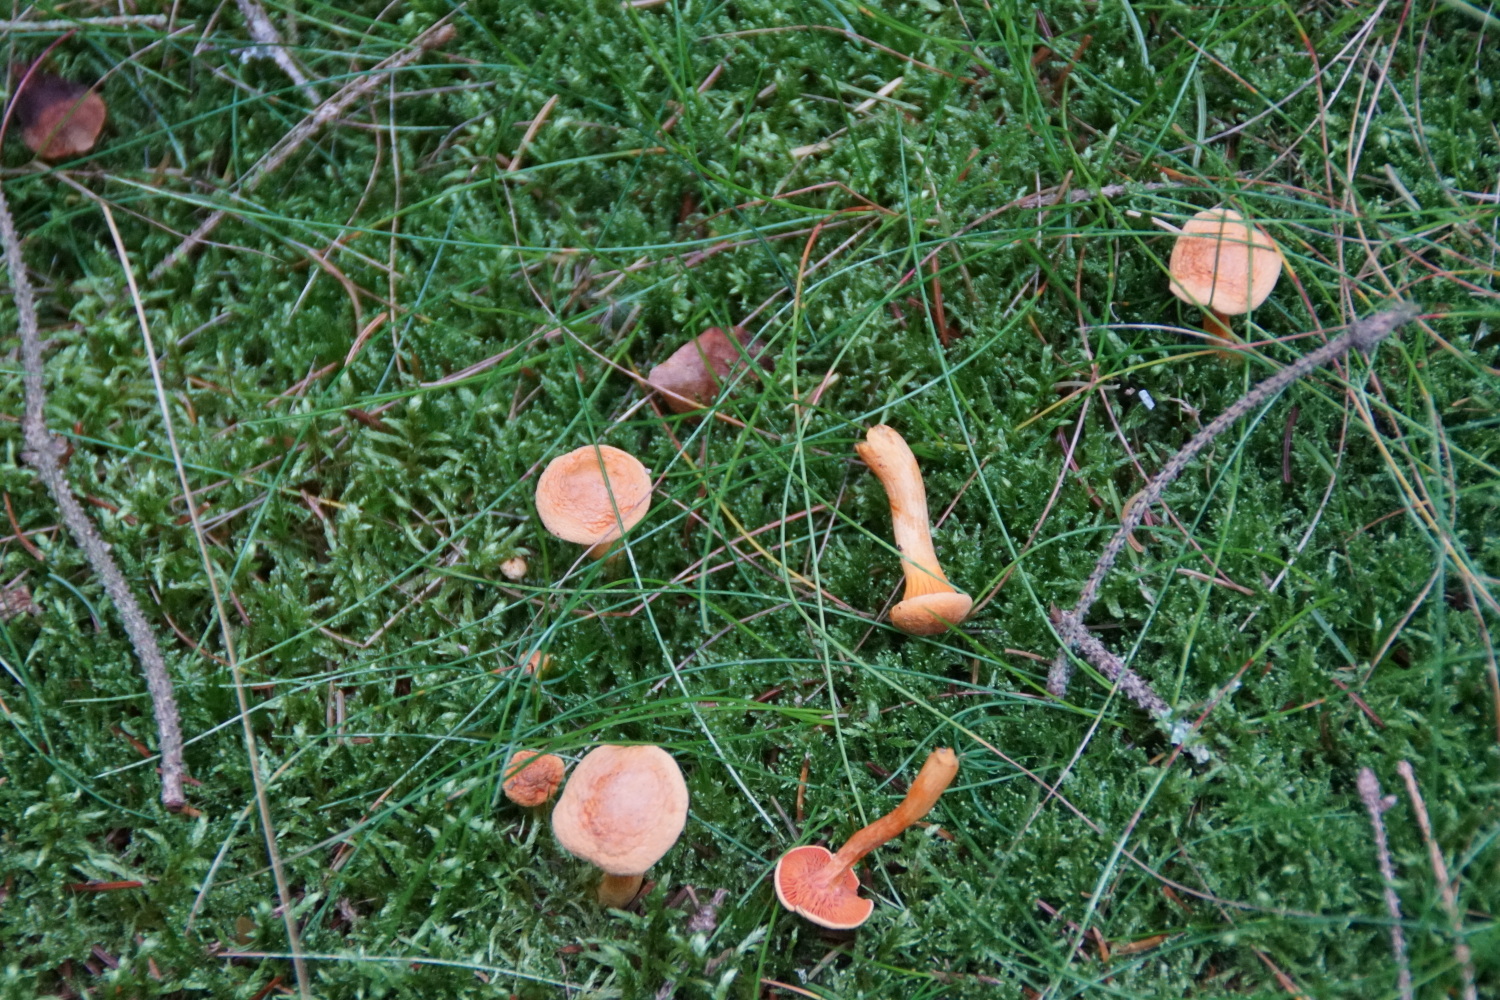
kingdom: Fungi
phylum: Basidiomycota
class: Agaricomycetes
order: Boletales
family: Hygrophoropsidaceae
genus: Hygrophoropsis
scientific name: Hygrophoropsis aurantiaca
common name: almindelig orangekantarel
